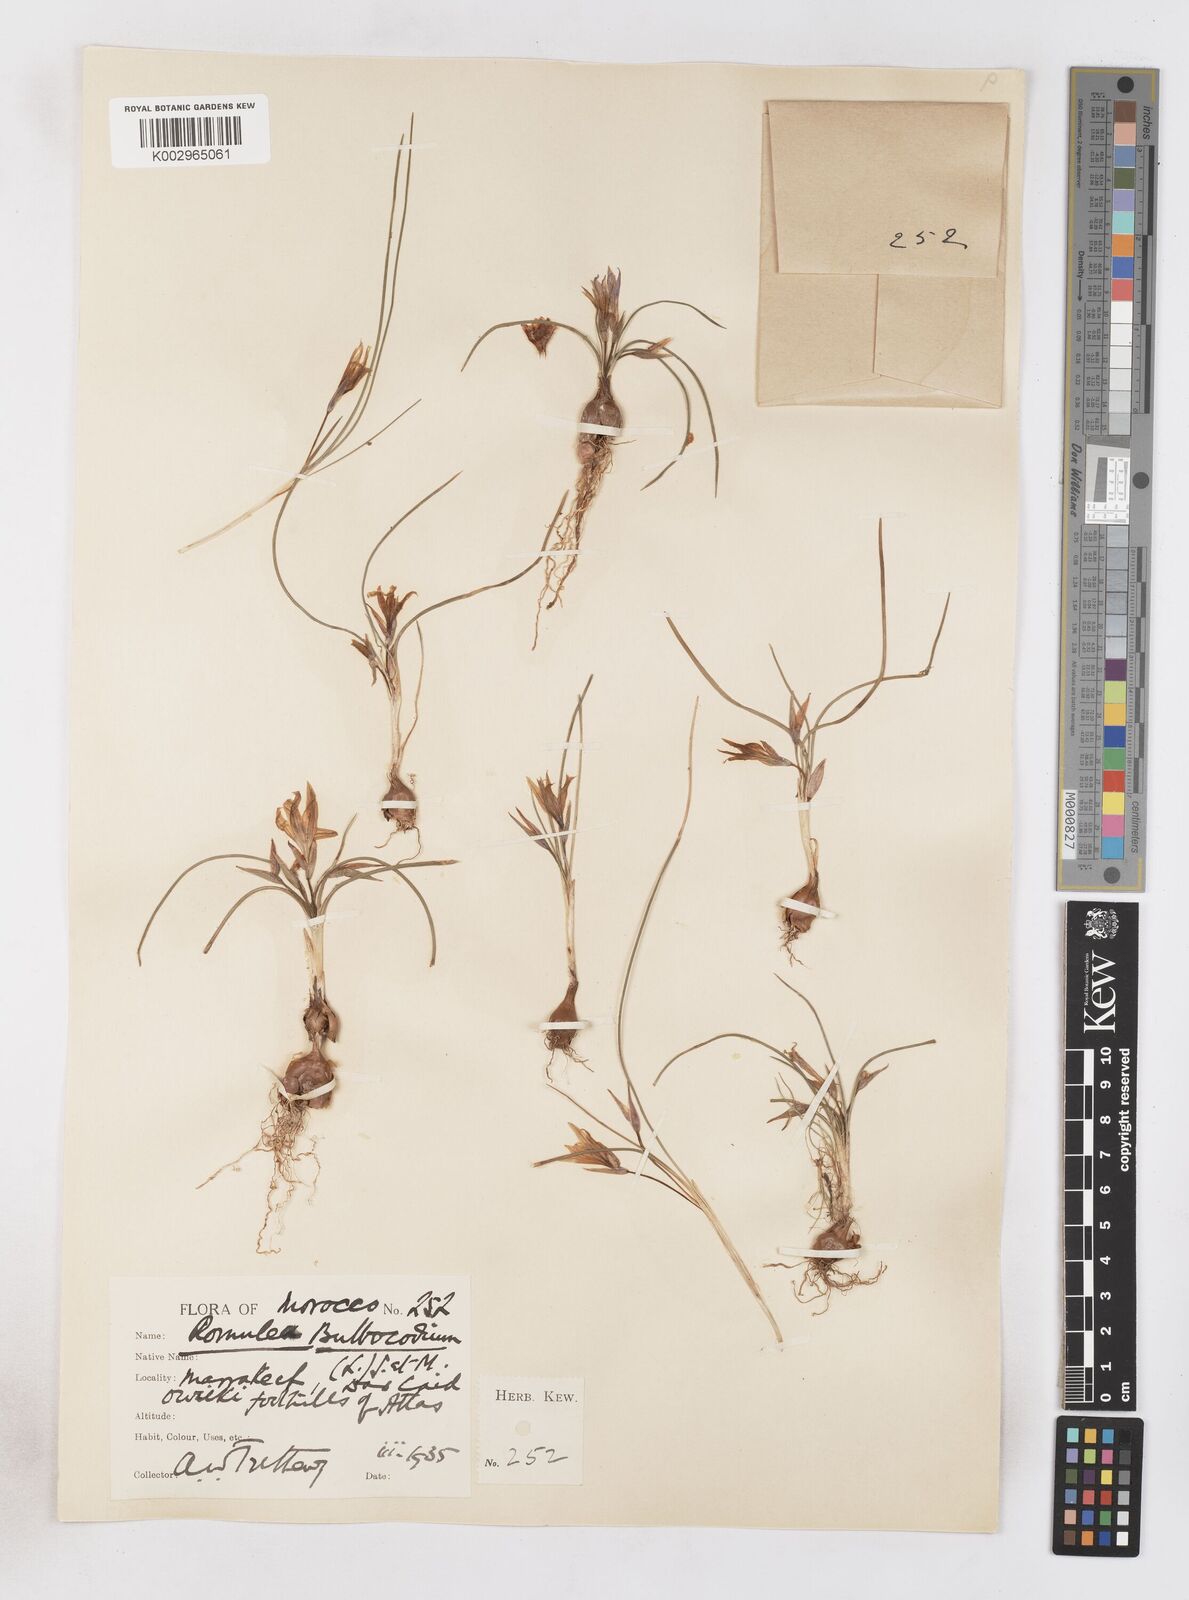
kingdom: Plantae
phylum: Tracheophyta
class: Liliopsida
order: Asparagales
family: Iridaceae
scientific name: Iridaceae
